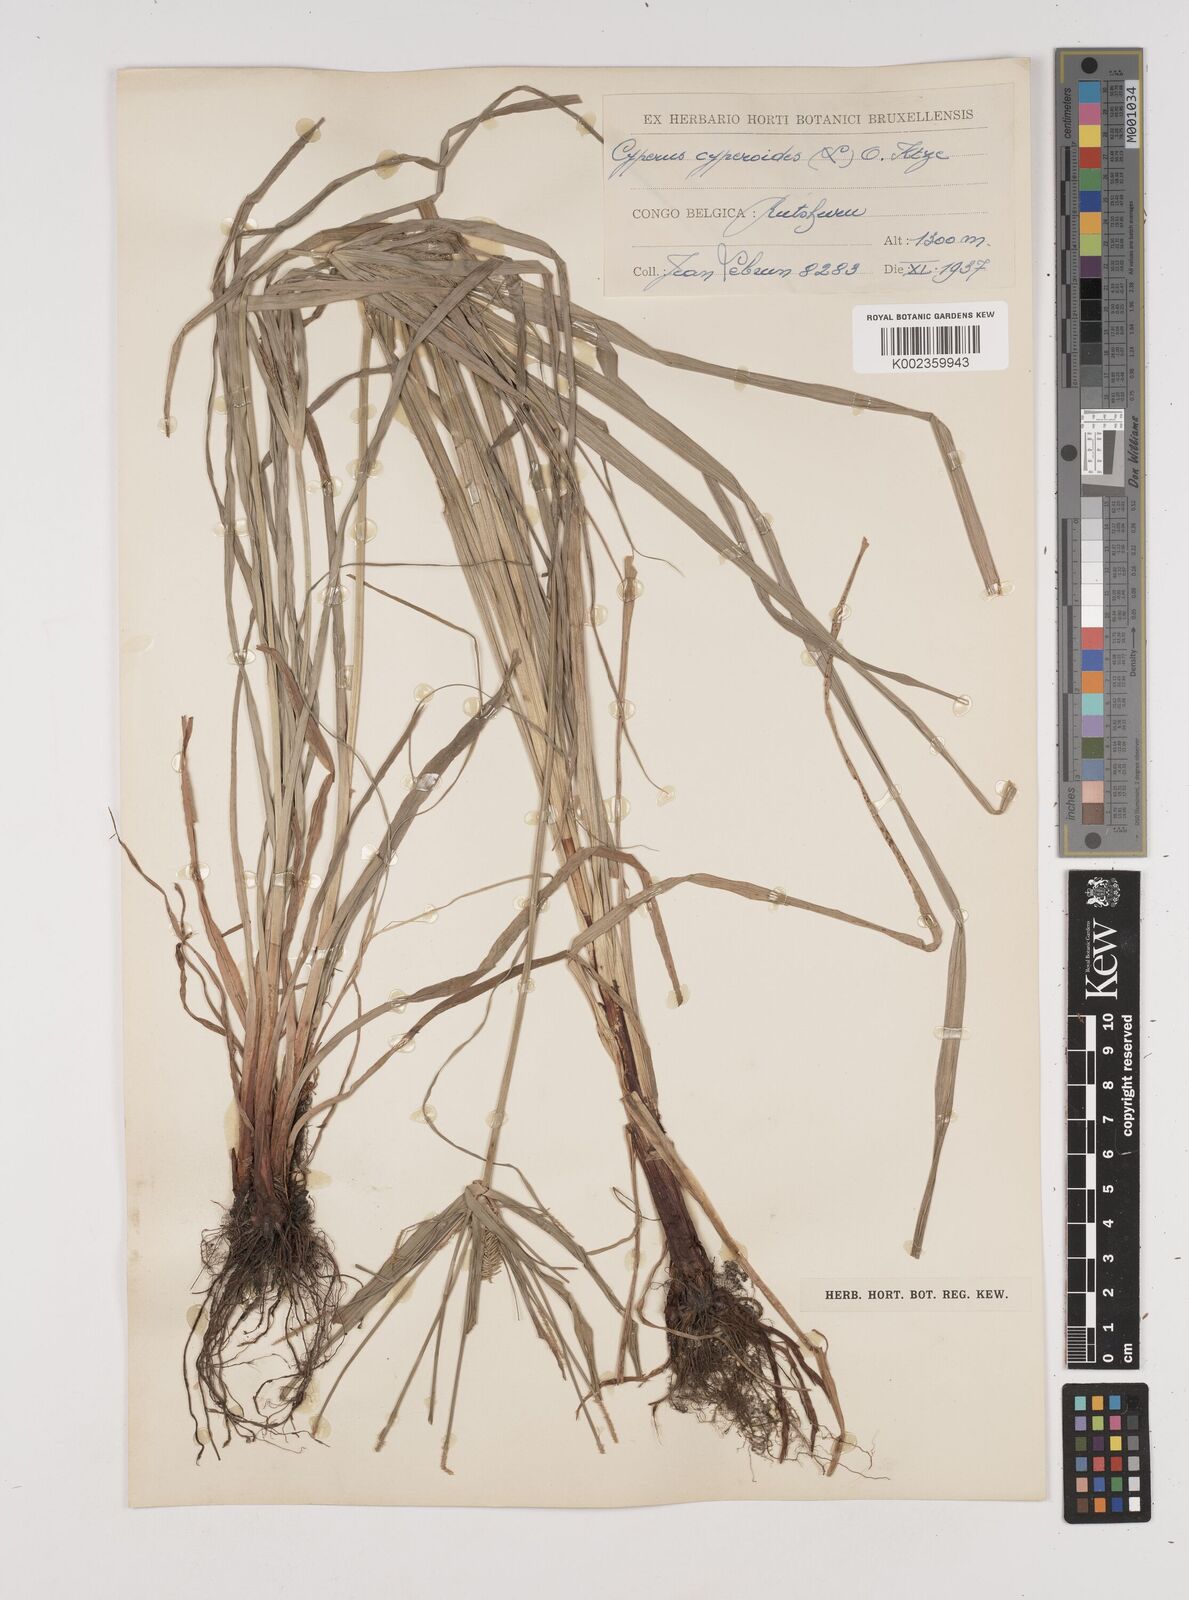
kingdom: Plantae
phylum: Tracheophyta
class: Liliopsida
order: Poales
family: Cyperaceae
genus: Cyperus
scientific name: Cyperus cyperoides
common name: Pacific island flat sedge
